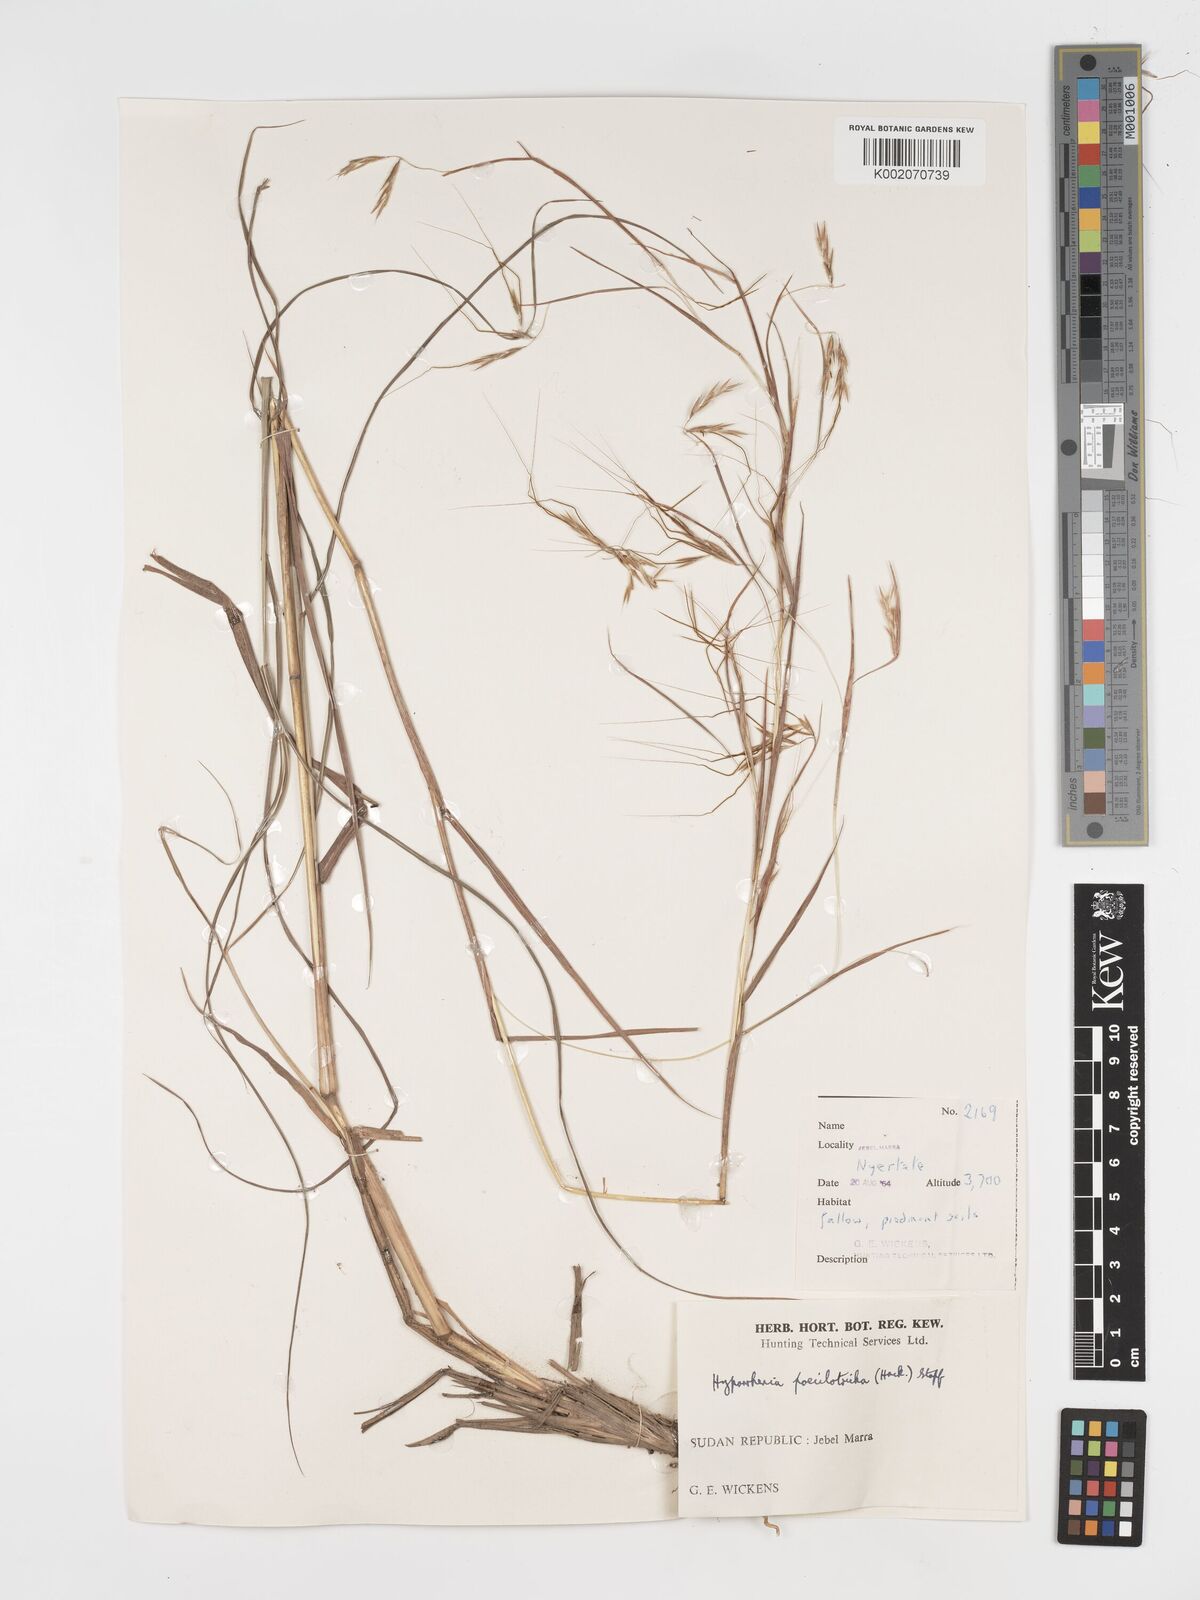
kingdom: Plantae
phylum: Tracheophyta
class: Liliopsida
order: Poales
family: Poaceae
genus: Hyparrhenia
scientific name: Hyparrhenia poecilotricha
